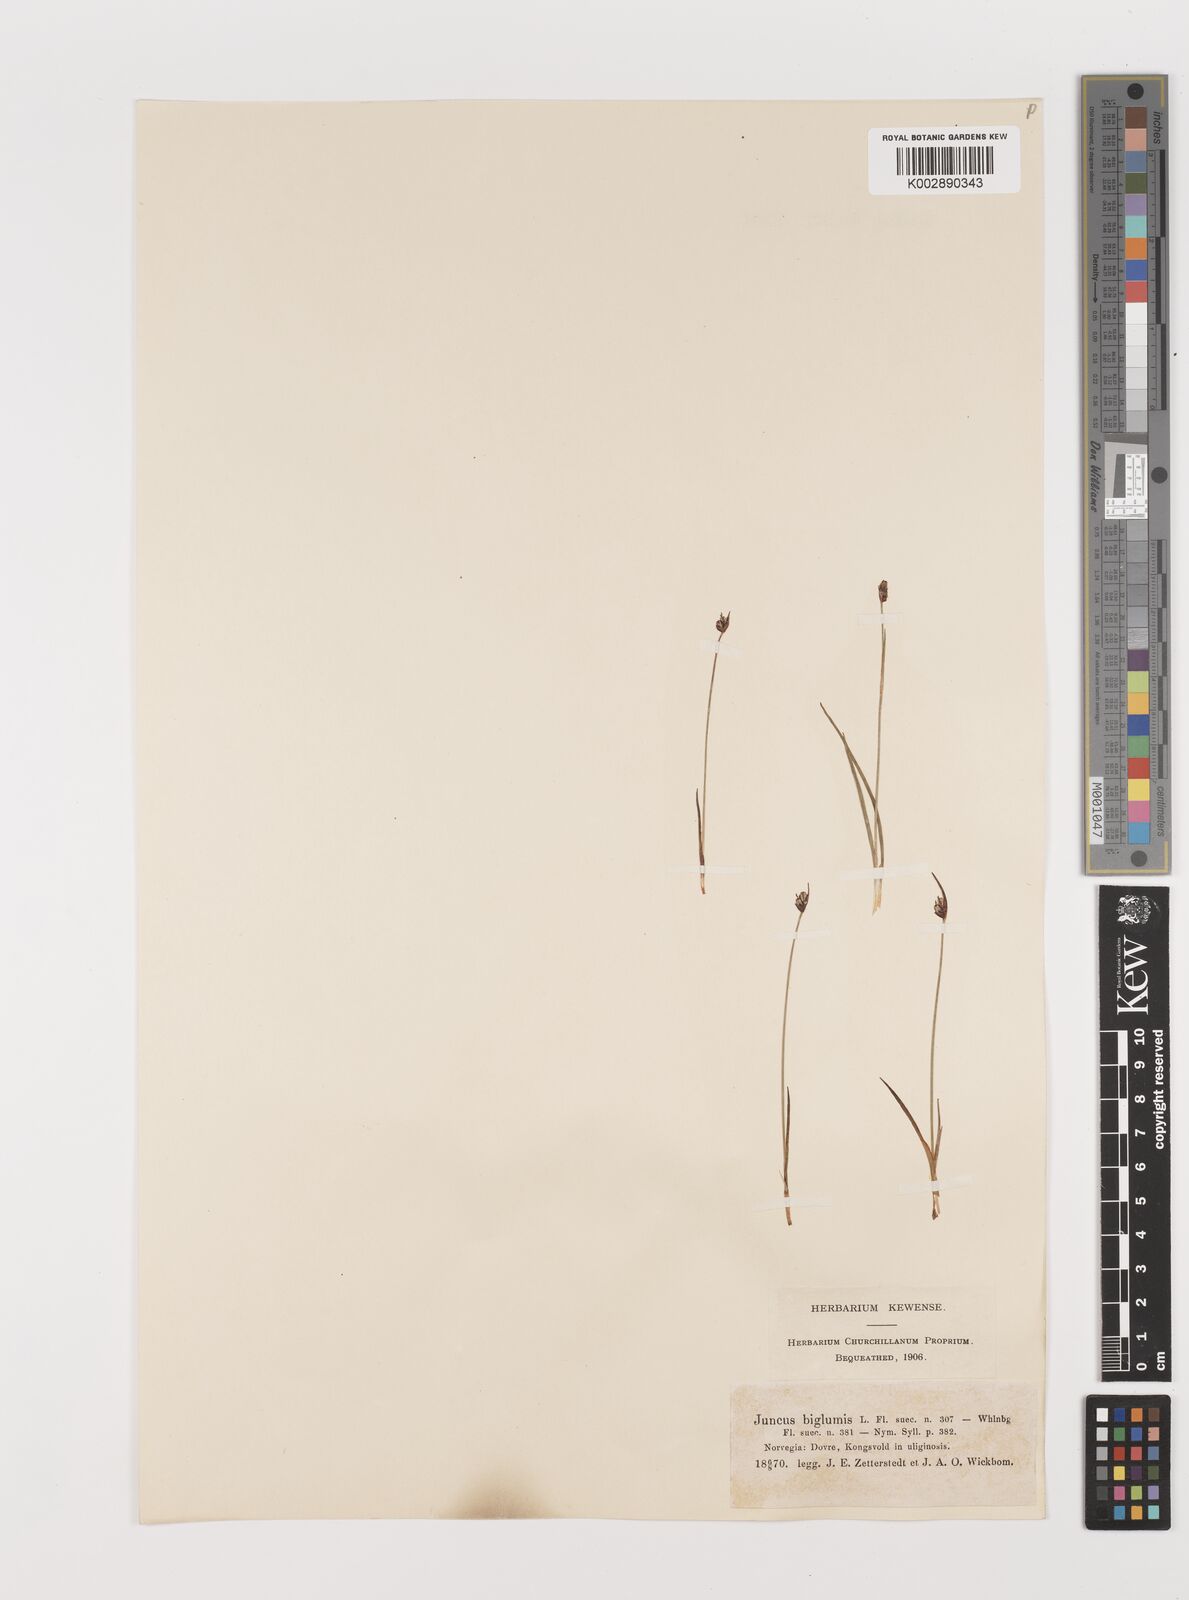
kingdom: Plantae
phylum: Tracheophyta
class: Liliopsida
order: Poales
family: Juncaceae
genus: Juncus
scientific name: Juncus biglumis
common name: Two-flowered rush
